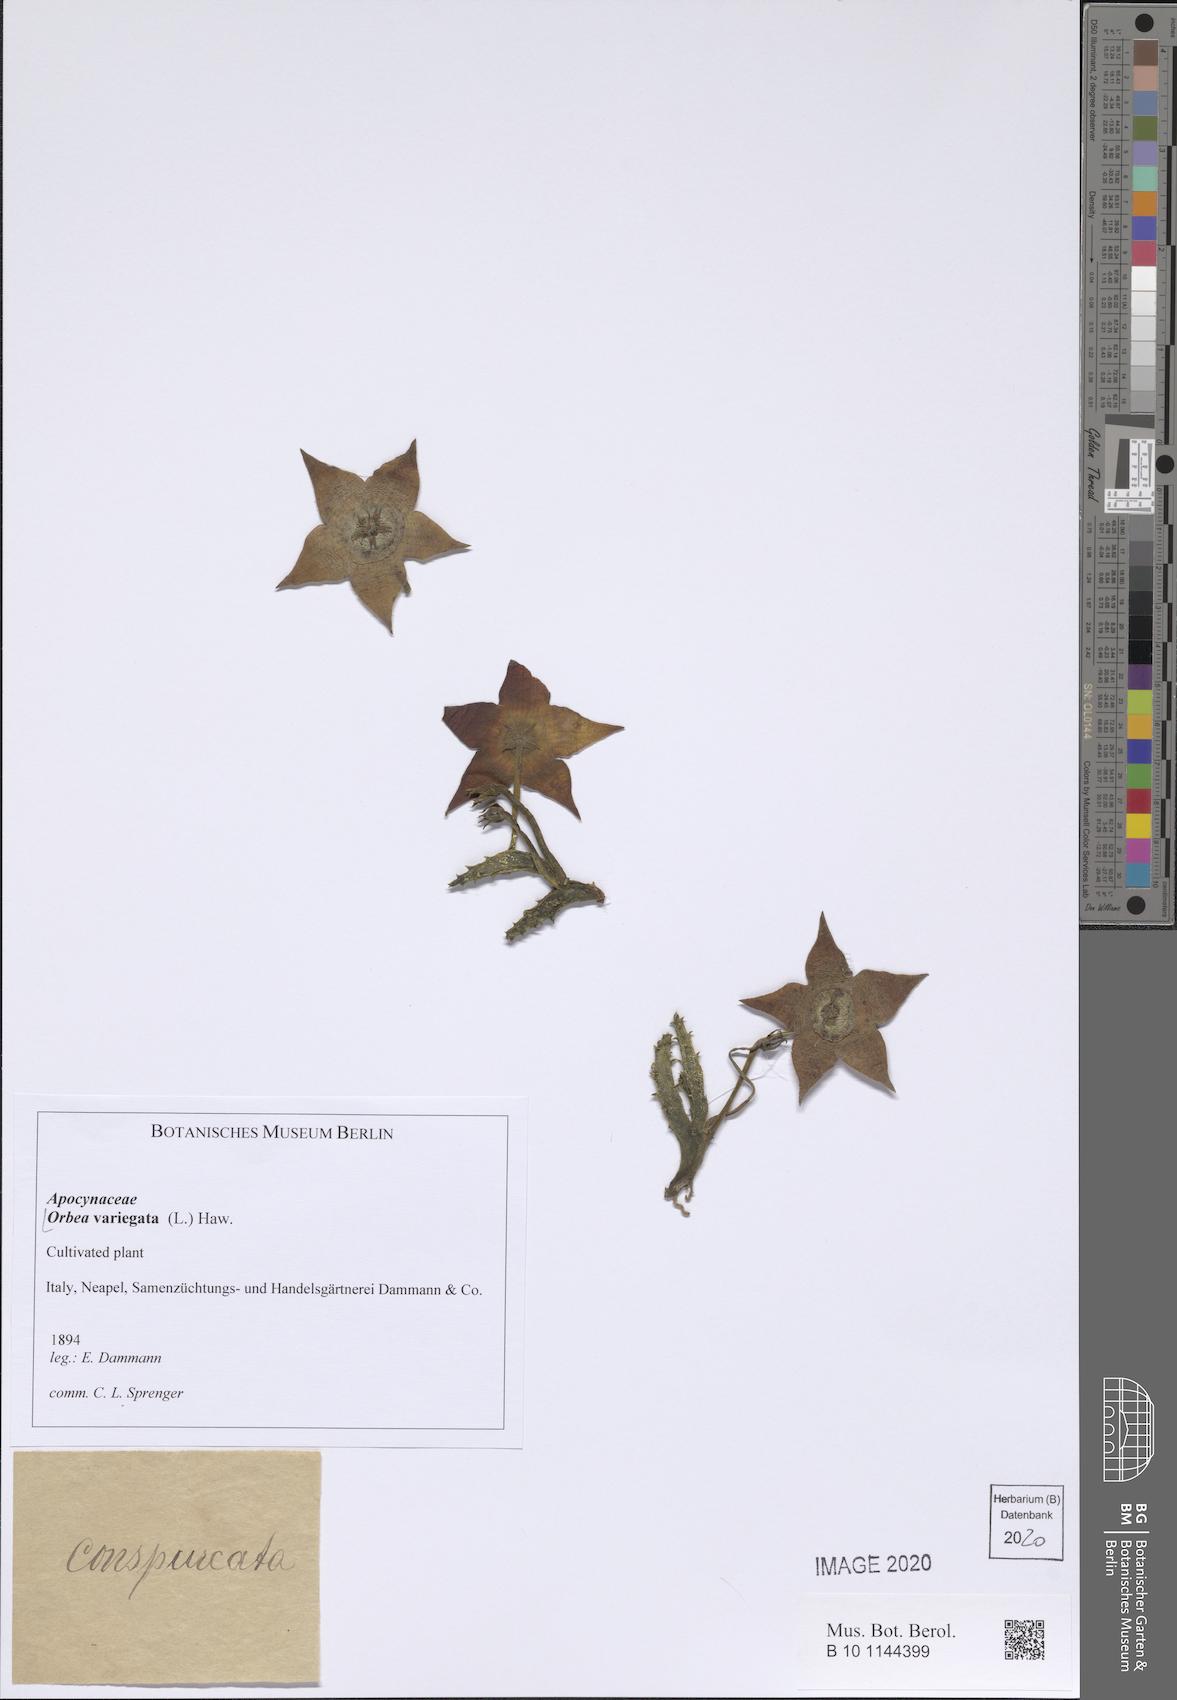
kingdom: Plantae
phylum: Tracheophyta
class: Magnoliopsida
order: Gentianales
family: Apocynaceae
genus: Ceropegia
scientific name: Ceropegia mixta
